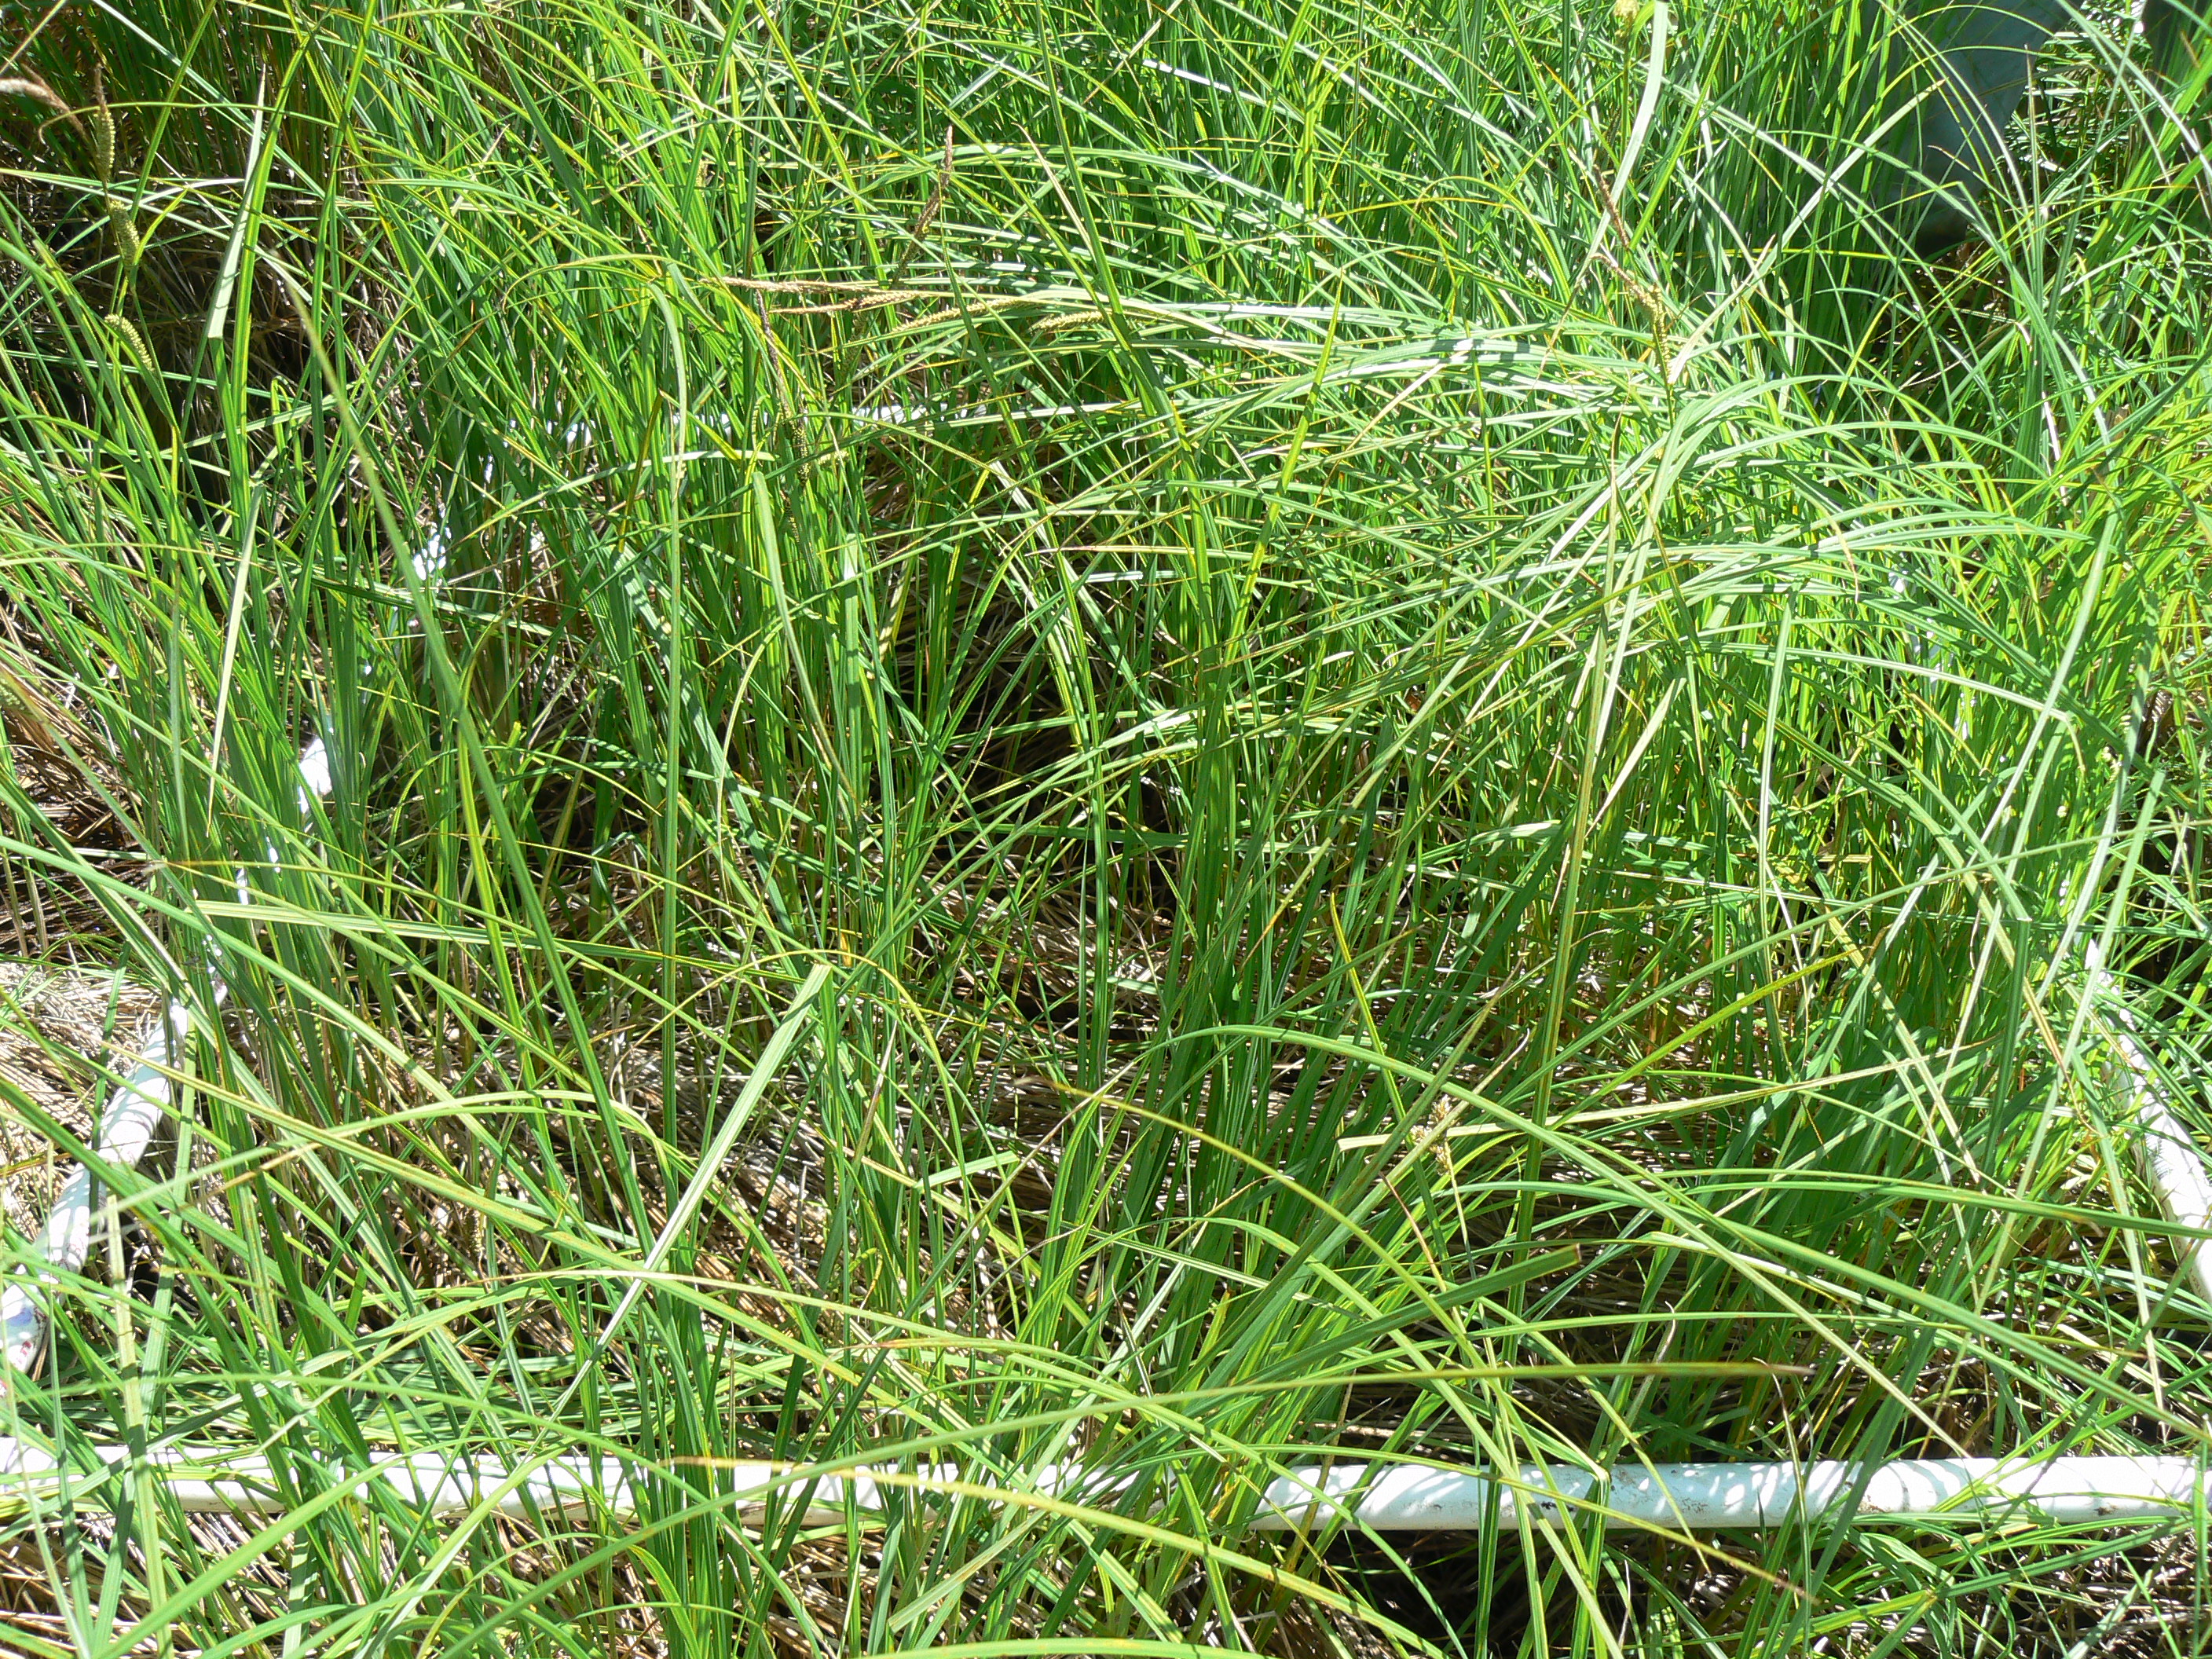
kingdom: Plantae
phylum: Tracheophyta
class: Polypodiopsida
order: Polypodiales
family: Thelypteridaceae
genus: Thelypteris
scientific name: Thelypteris palustris
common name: Marsh fern
